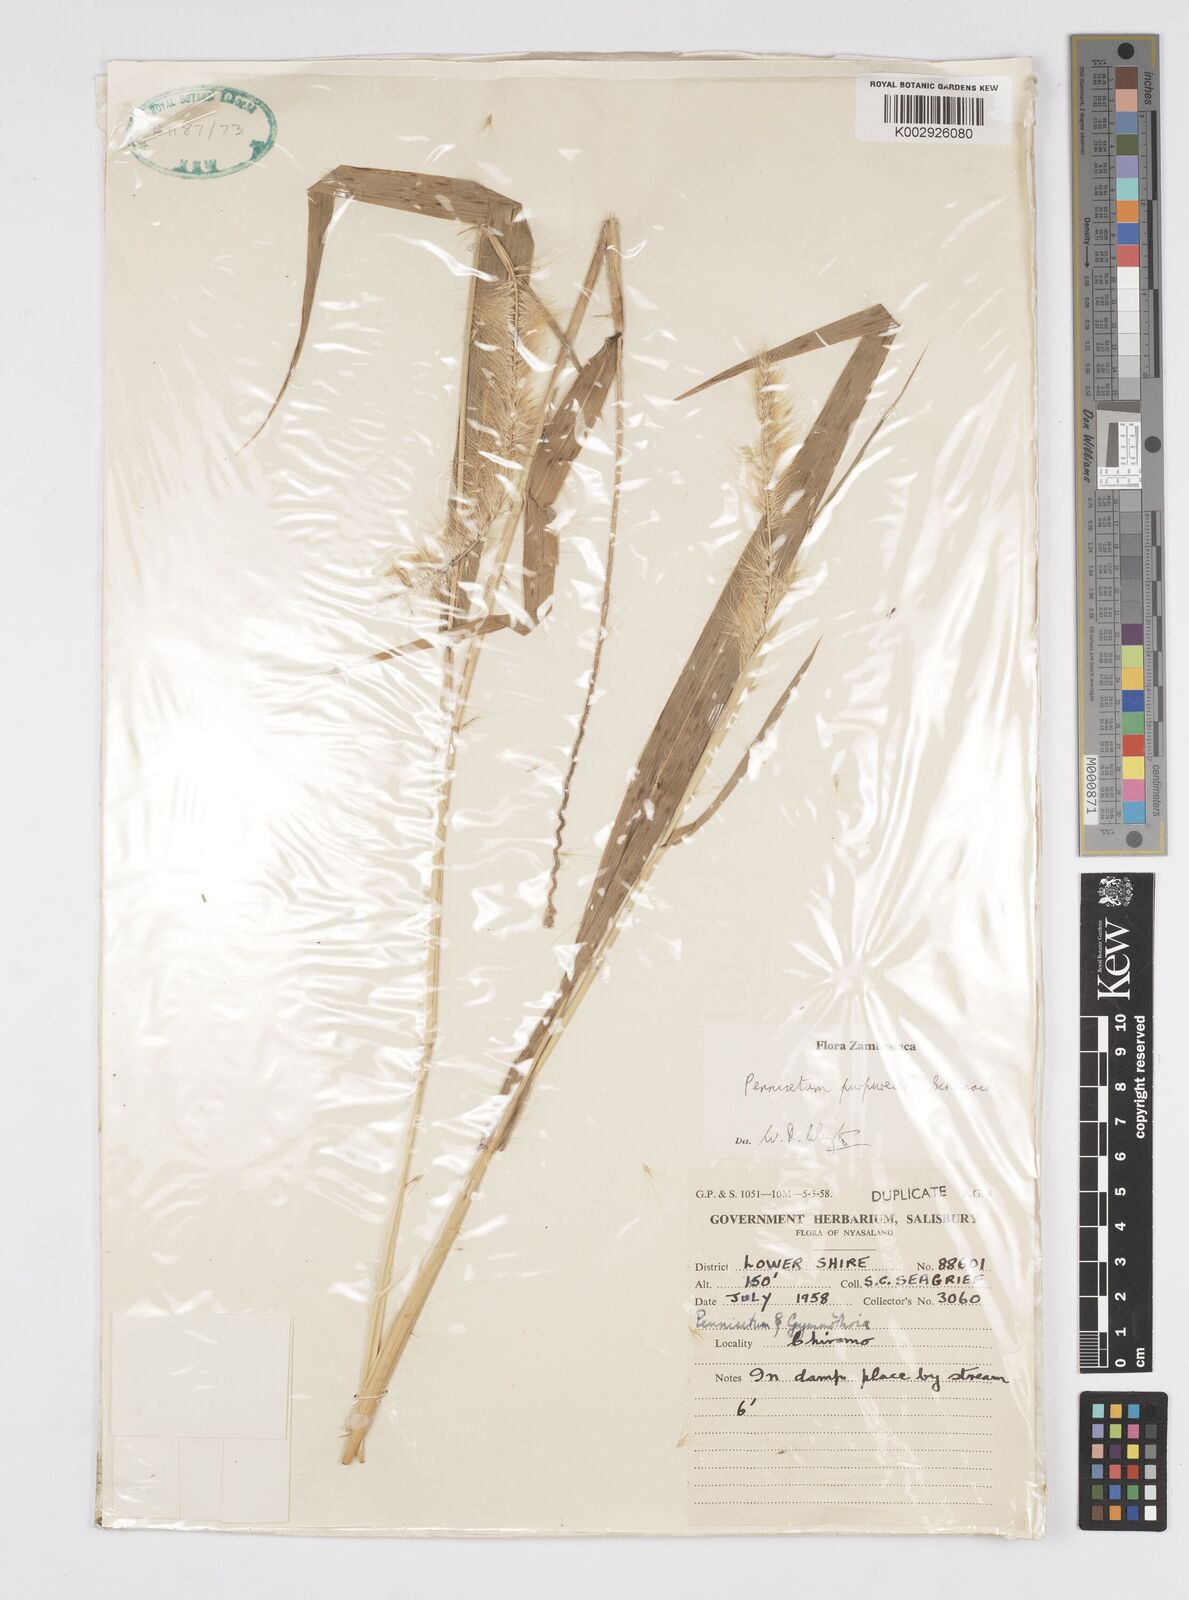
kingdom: Plantae
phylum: Tracheophyta
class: Liliopsida
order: Poales
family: Poaceae
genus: Cenchrus
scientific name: Cenchrus purpureus
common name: Elephant grass
